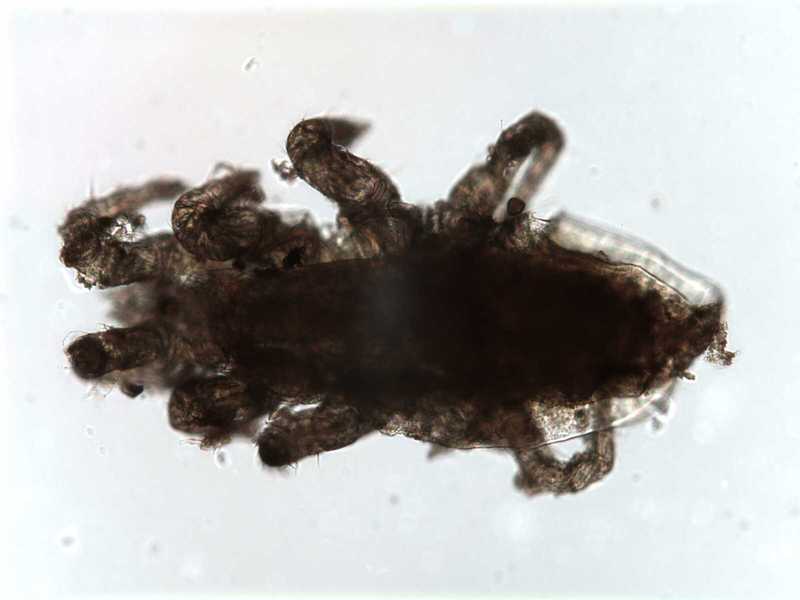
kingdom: Animalia
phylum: Arthropoda
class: Arachnida
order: Mesostigmata
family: Halarachnidae
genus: Orthohalarachne
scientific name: Orthohalarachne letalis
